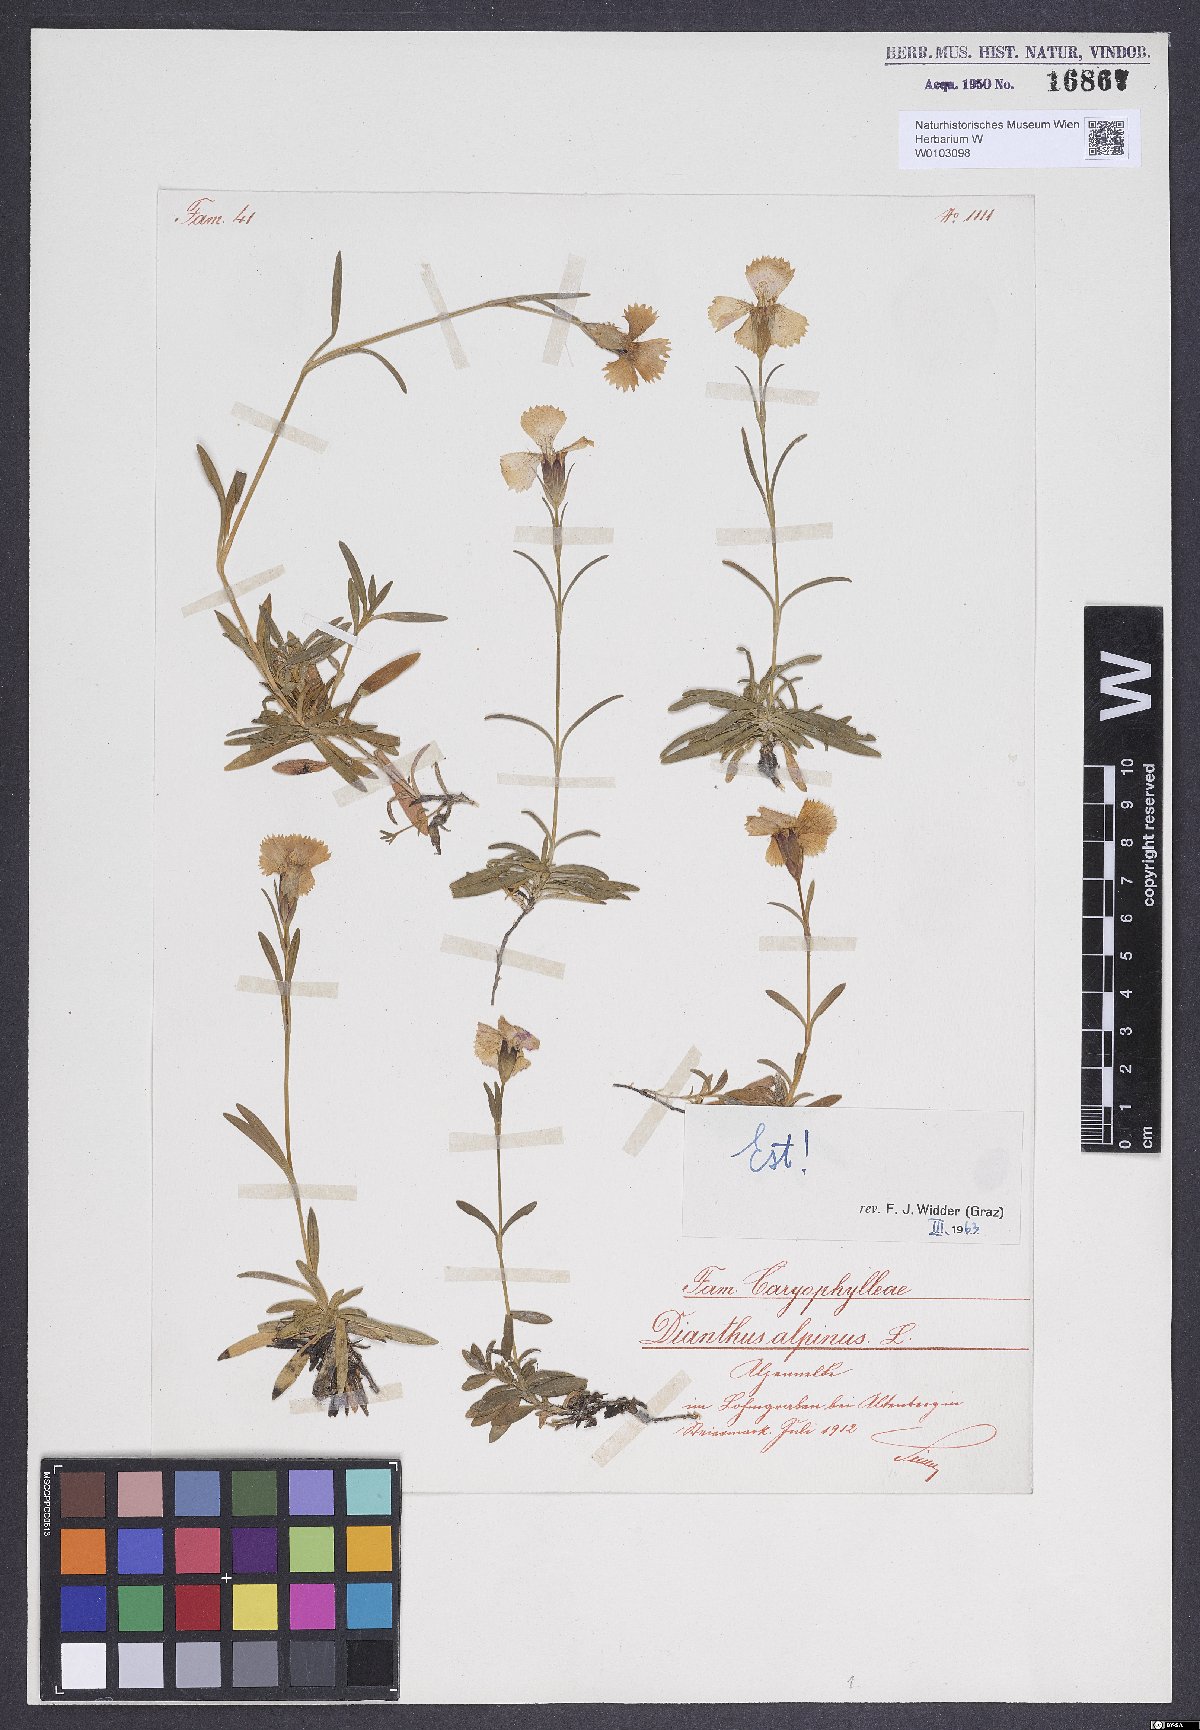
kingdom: Plantae
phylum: Tracheophyta
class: Magnoliopsida
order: Caryophyllales
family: Caryophyllaceae
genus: Dianthus
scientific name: Dianthus alpinus
